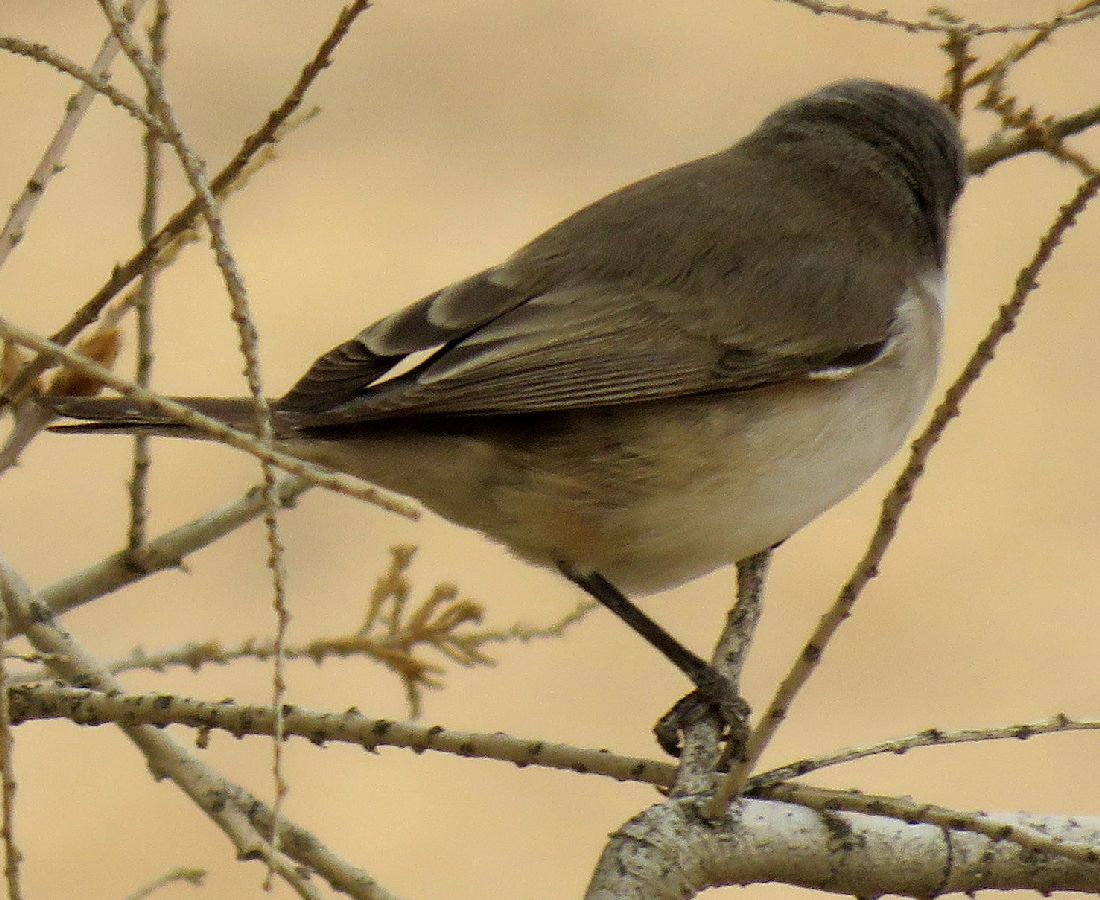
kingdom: Animalia
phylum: Chordata
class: Aves
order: Passeriformes
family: Sylviidae
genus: Sylvia
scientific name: Sylvia curruca
